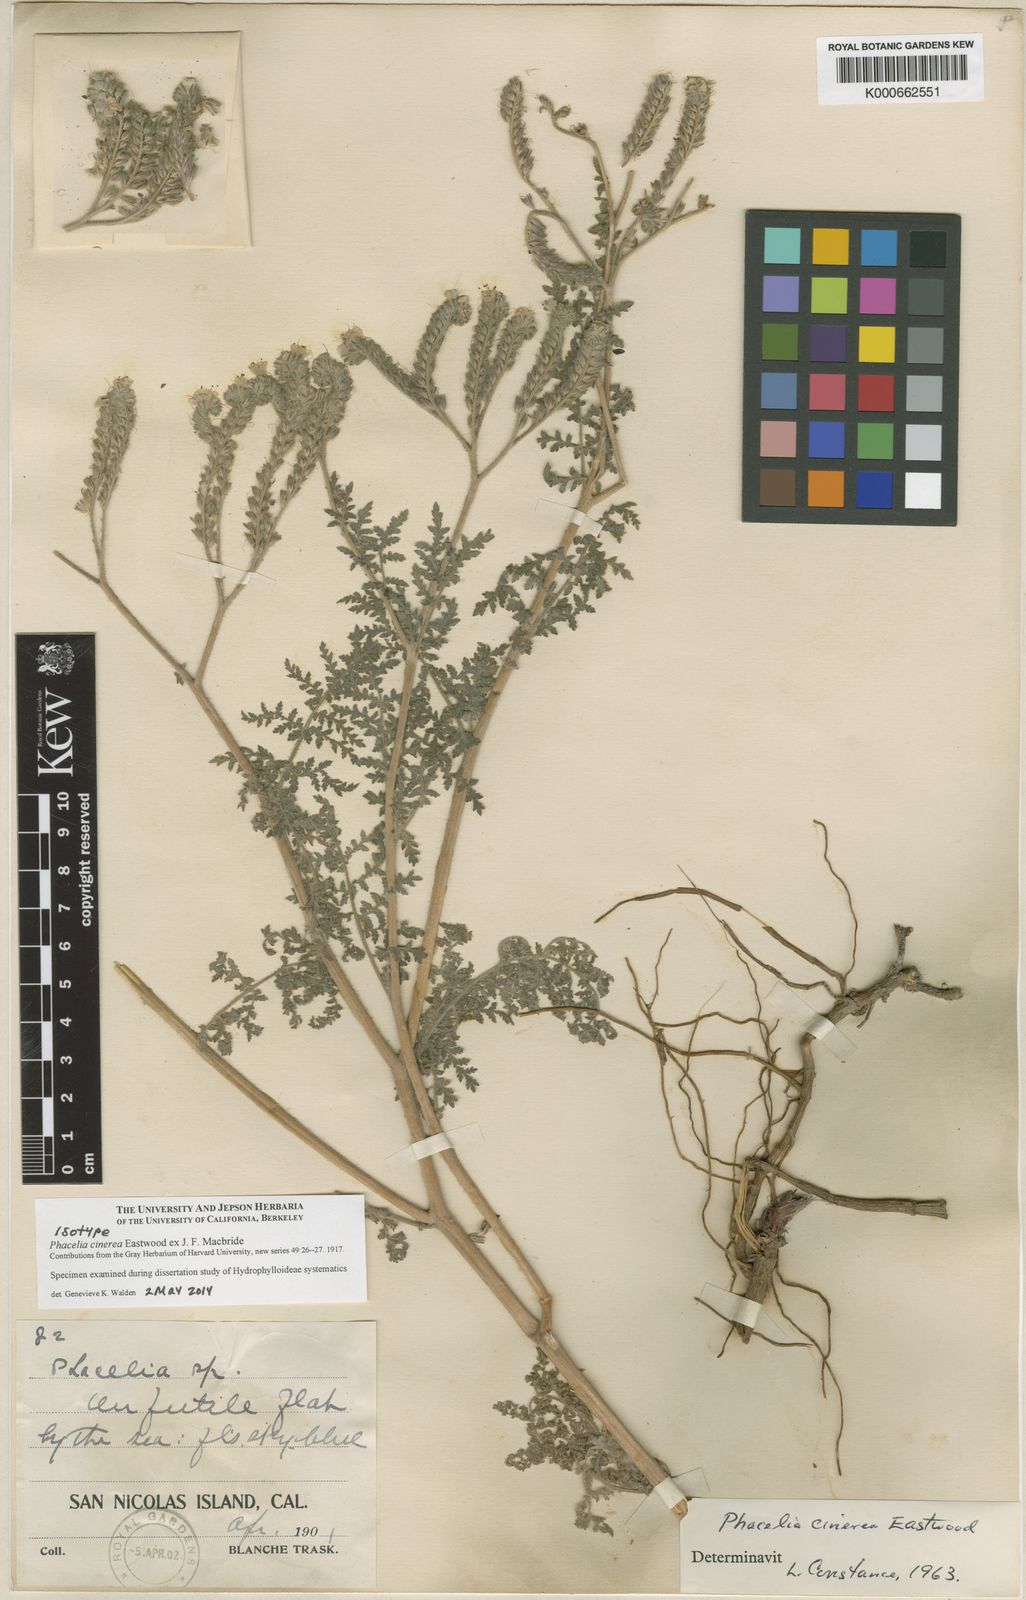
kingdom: Plantae
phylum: Tracheophyta
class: Magnoliopsida
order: Boraginales
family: Hydrophyllaceae
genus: Phacelia
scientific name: Phacelia distans
